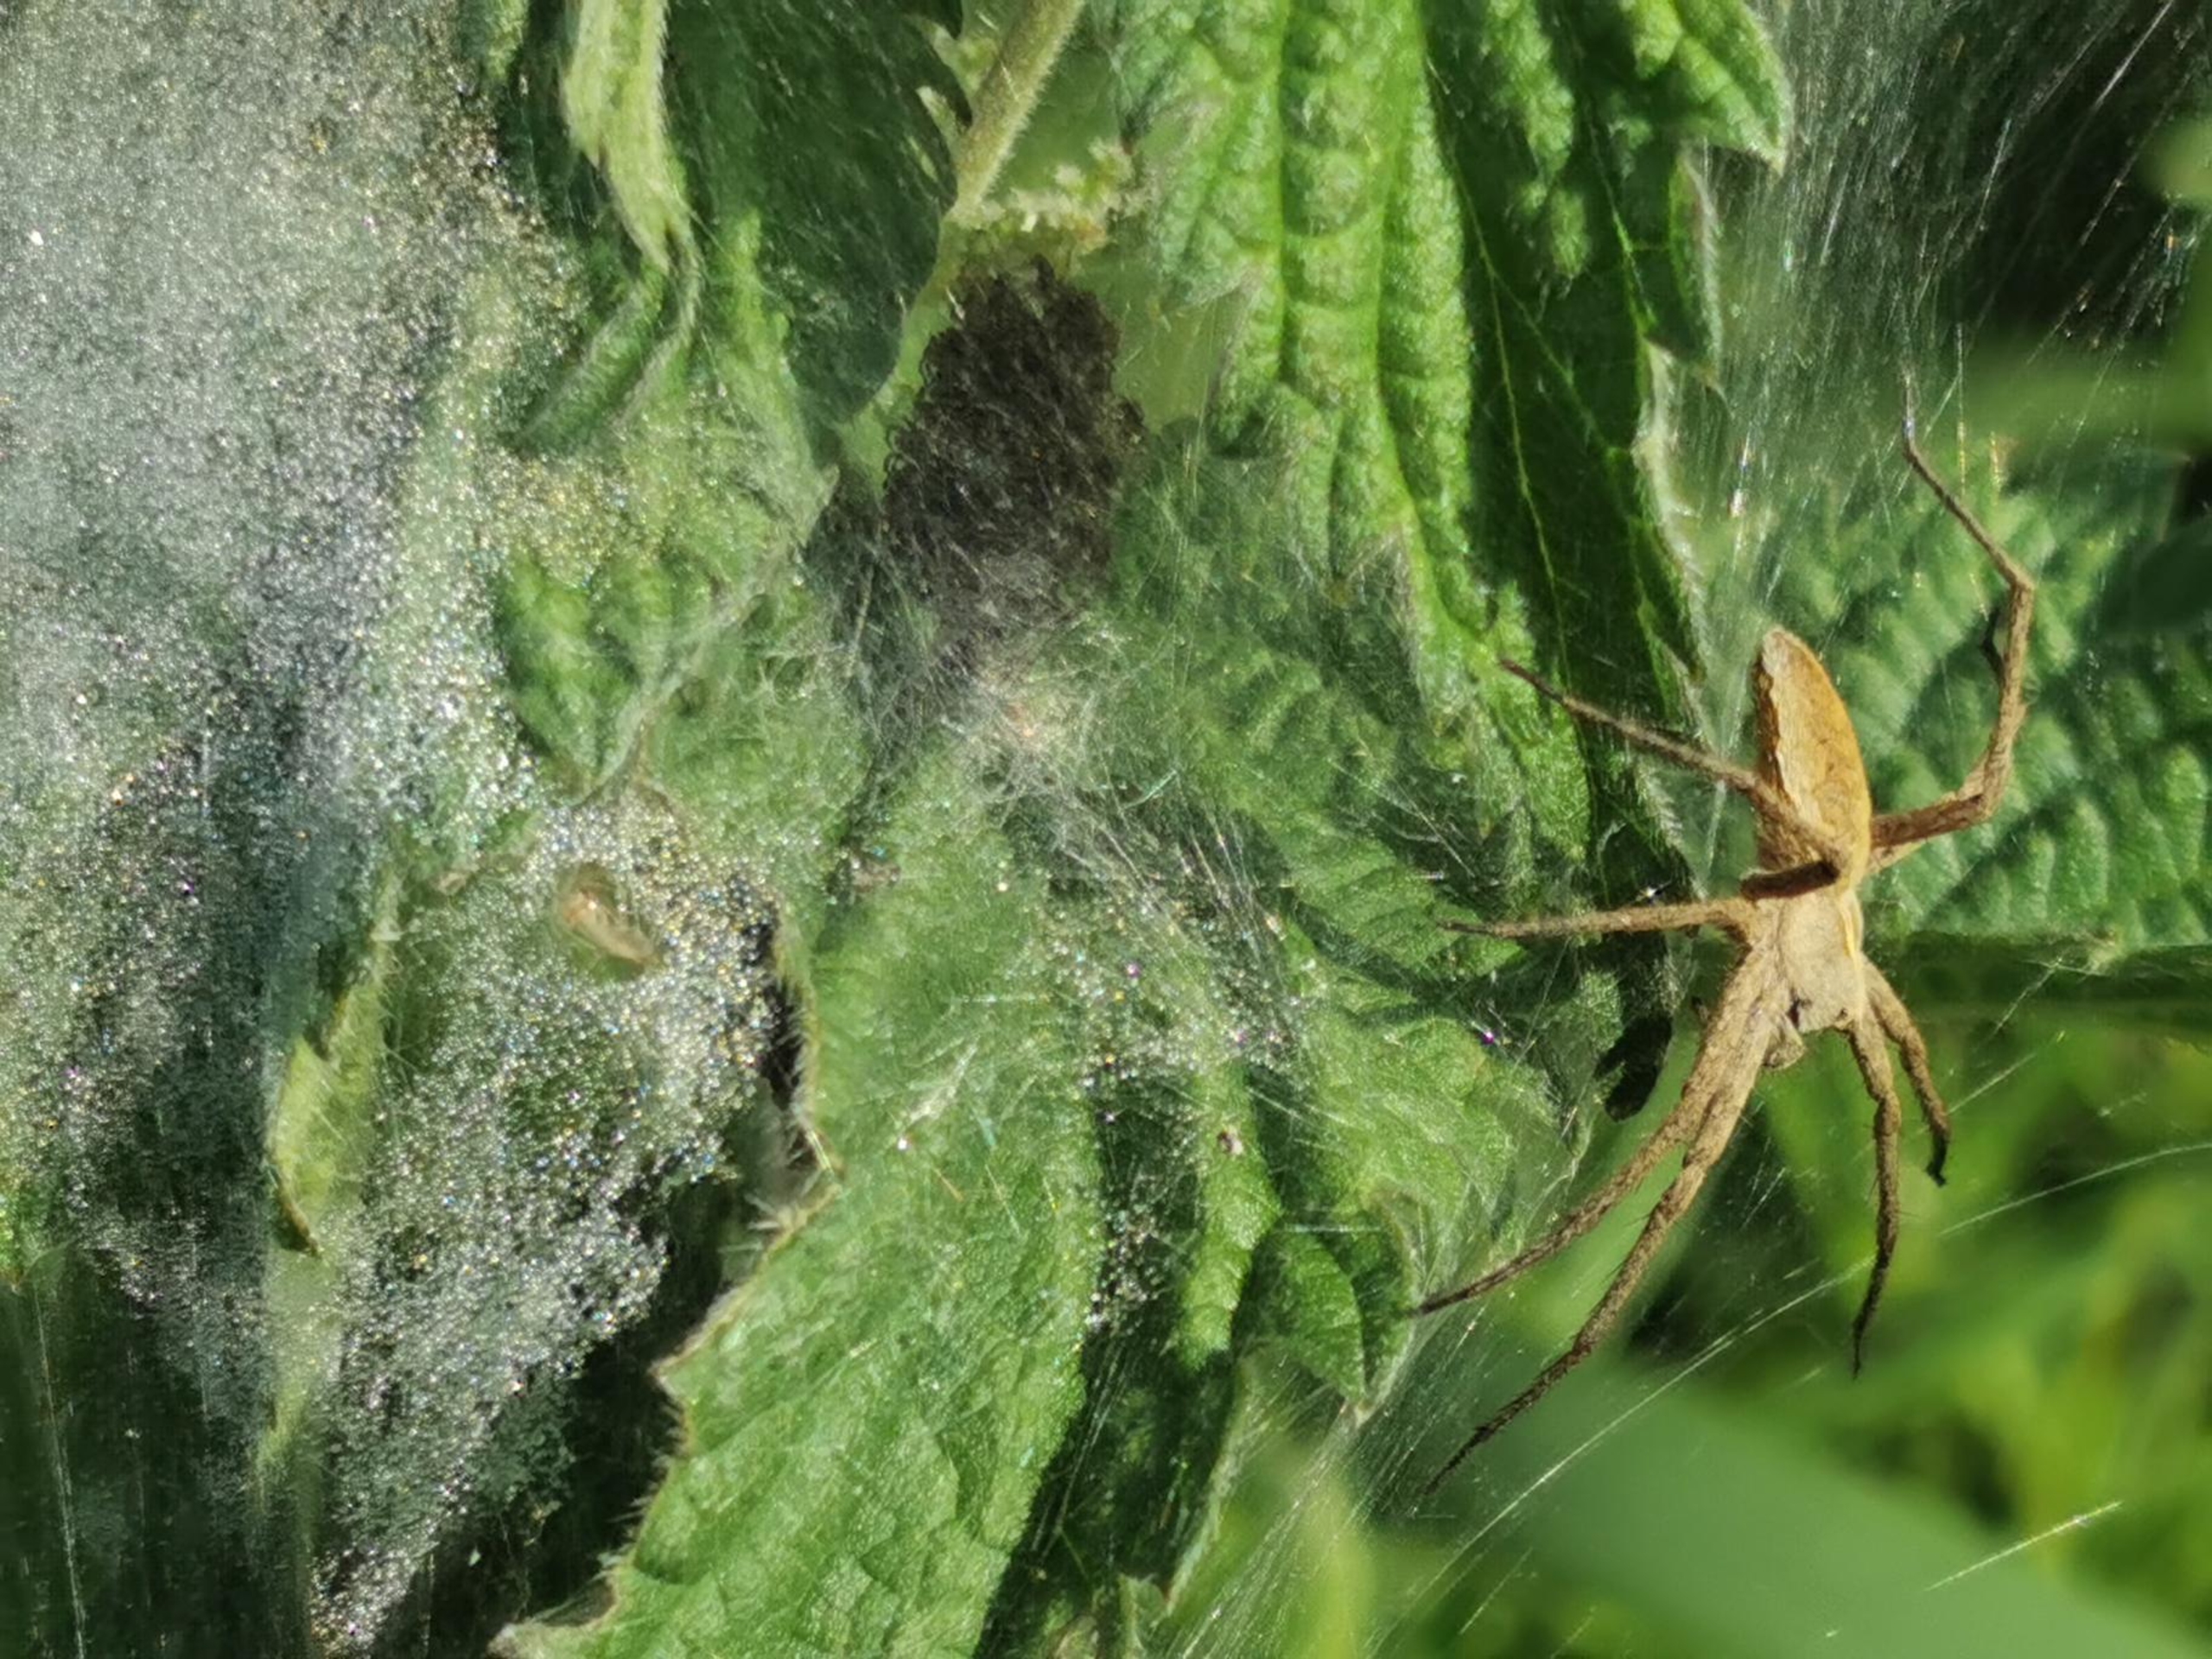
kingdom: Animalia
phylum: Arthropoda
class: Arachnida
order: Araneae
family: Pisauridae
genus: Pisaura
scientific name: Pisaura mirabilis
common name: Almindelig rovedderkop
